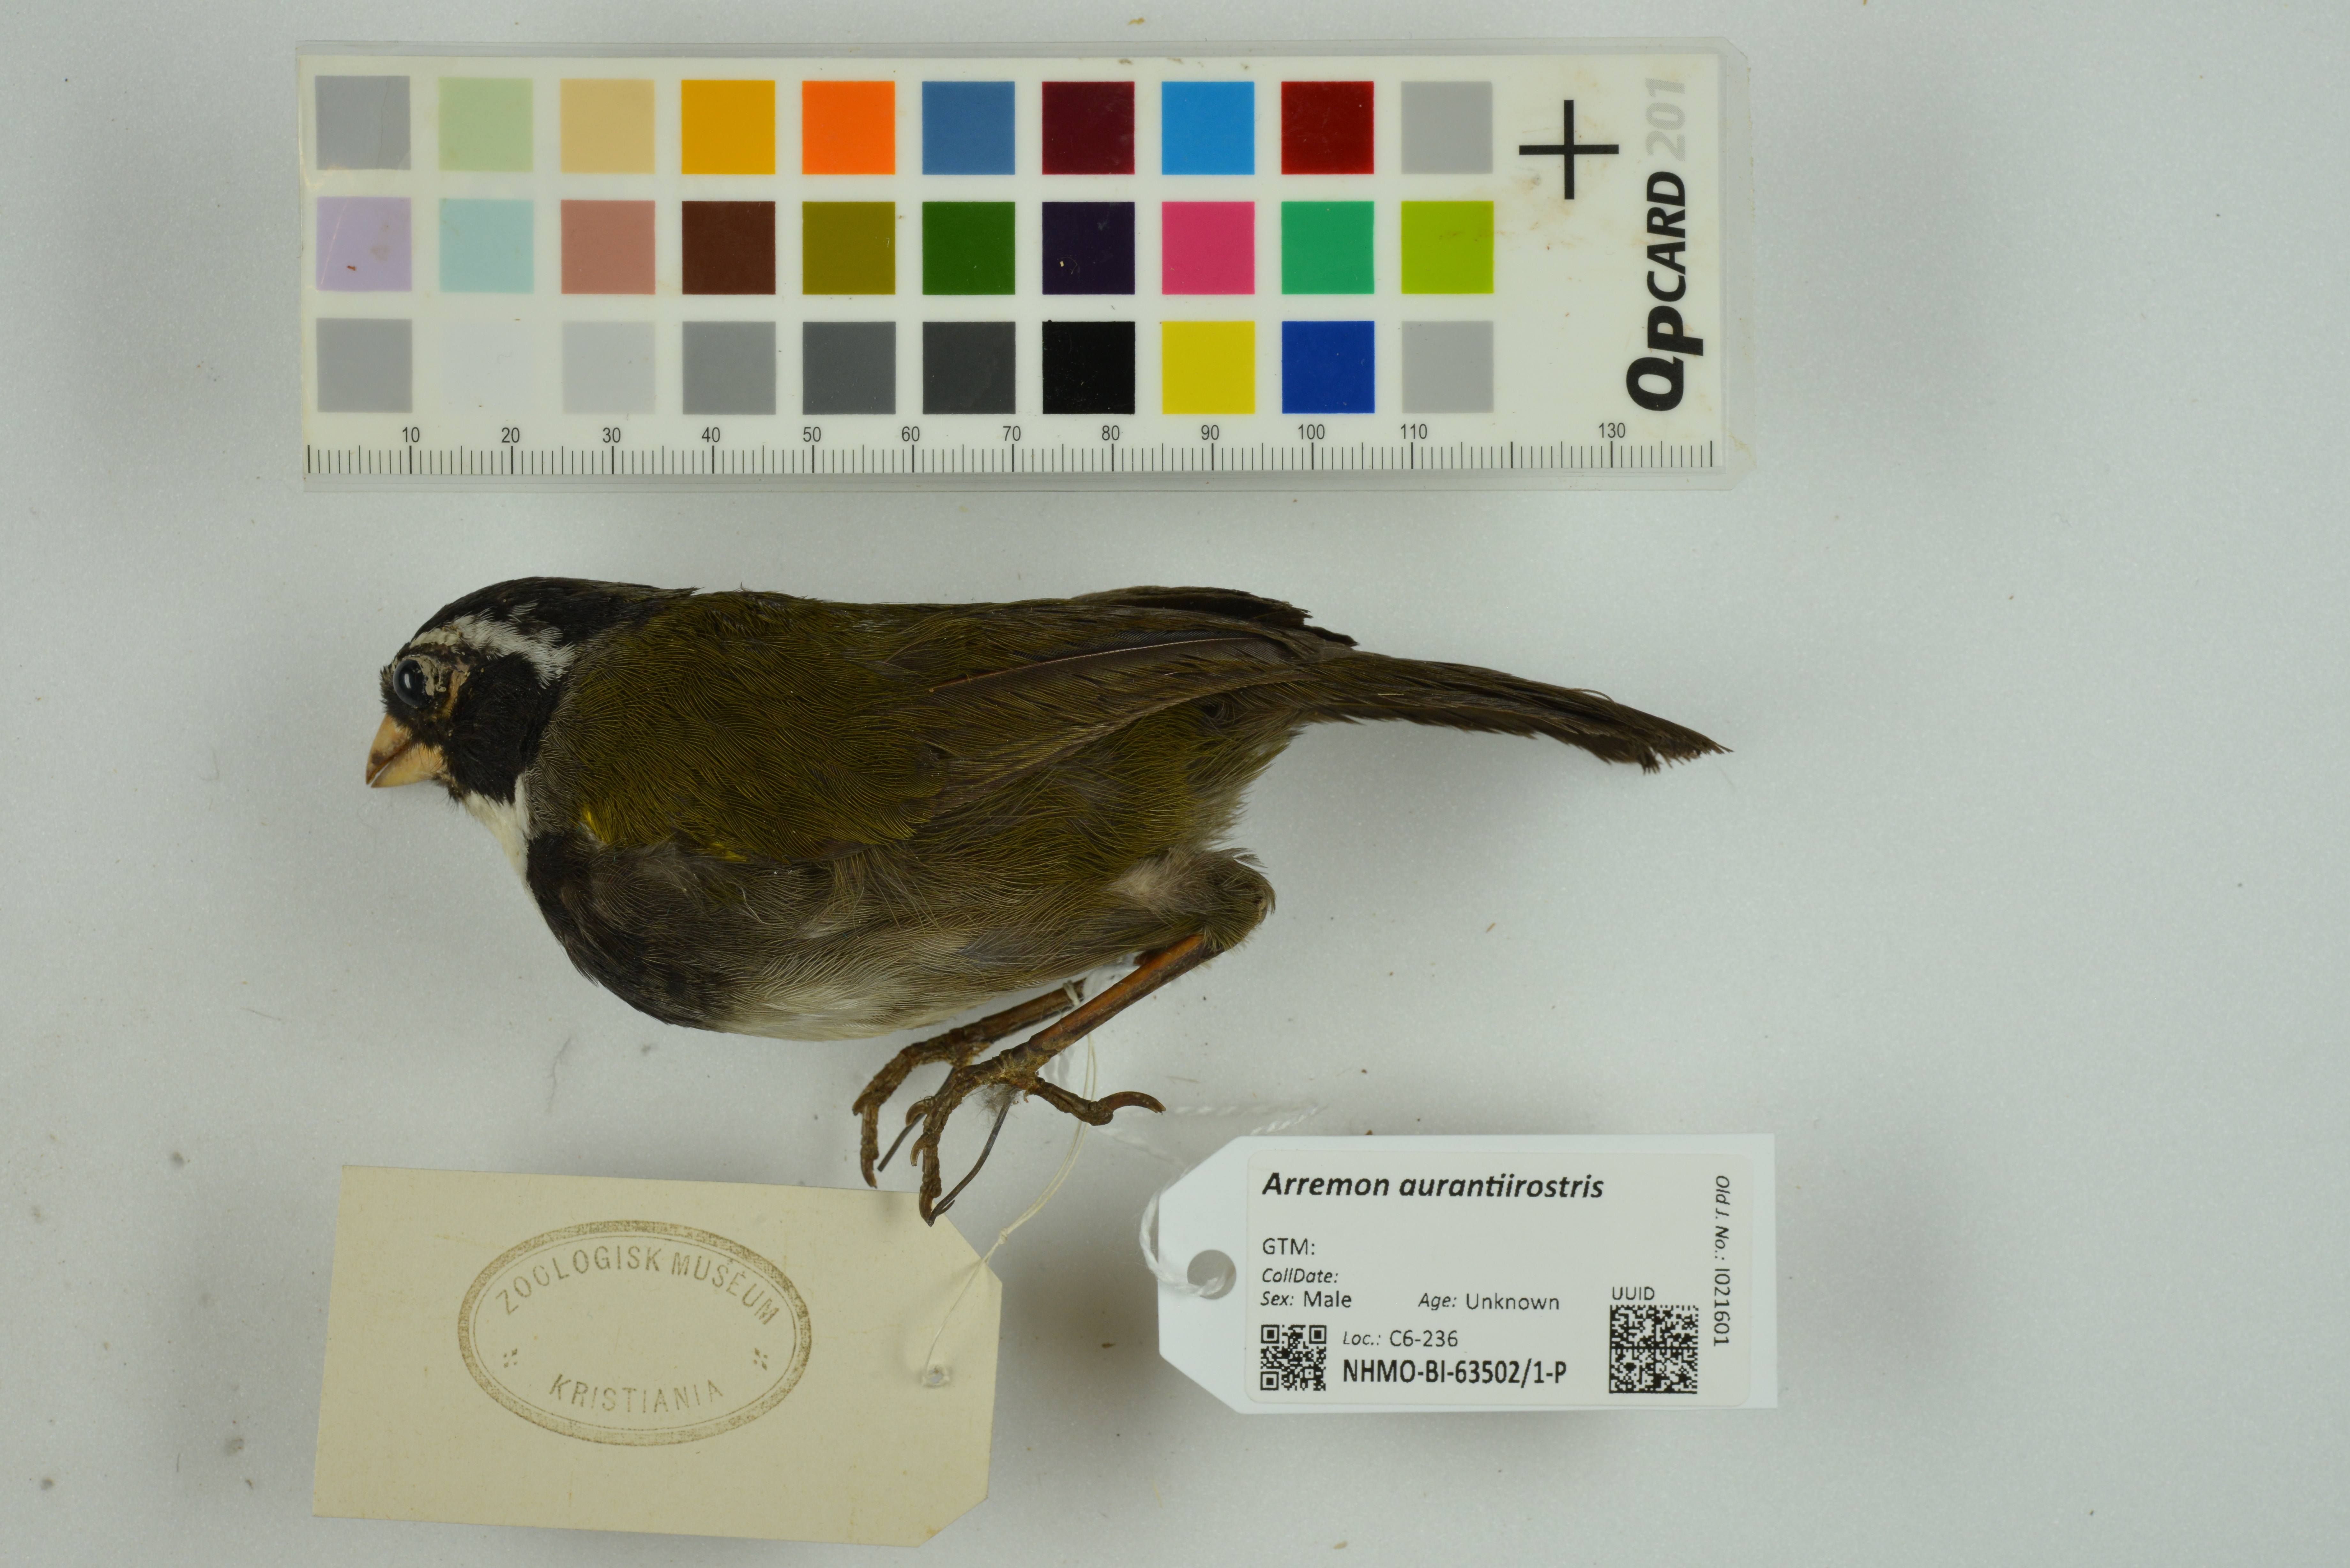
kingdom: Animalia
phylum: Chordata
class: Aves
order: Passeriformes
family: Passerellidae
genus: Arremon
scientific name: Arremon aurantiirostris
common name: Orange-billed sparrow
